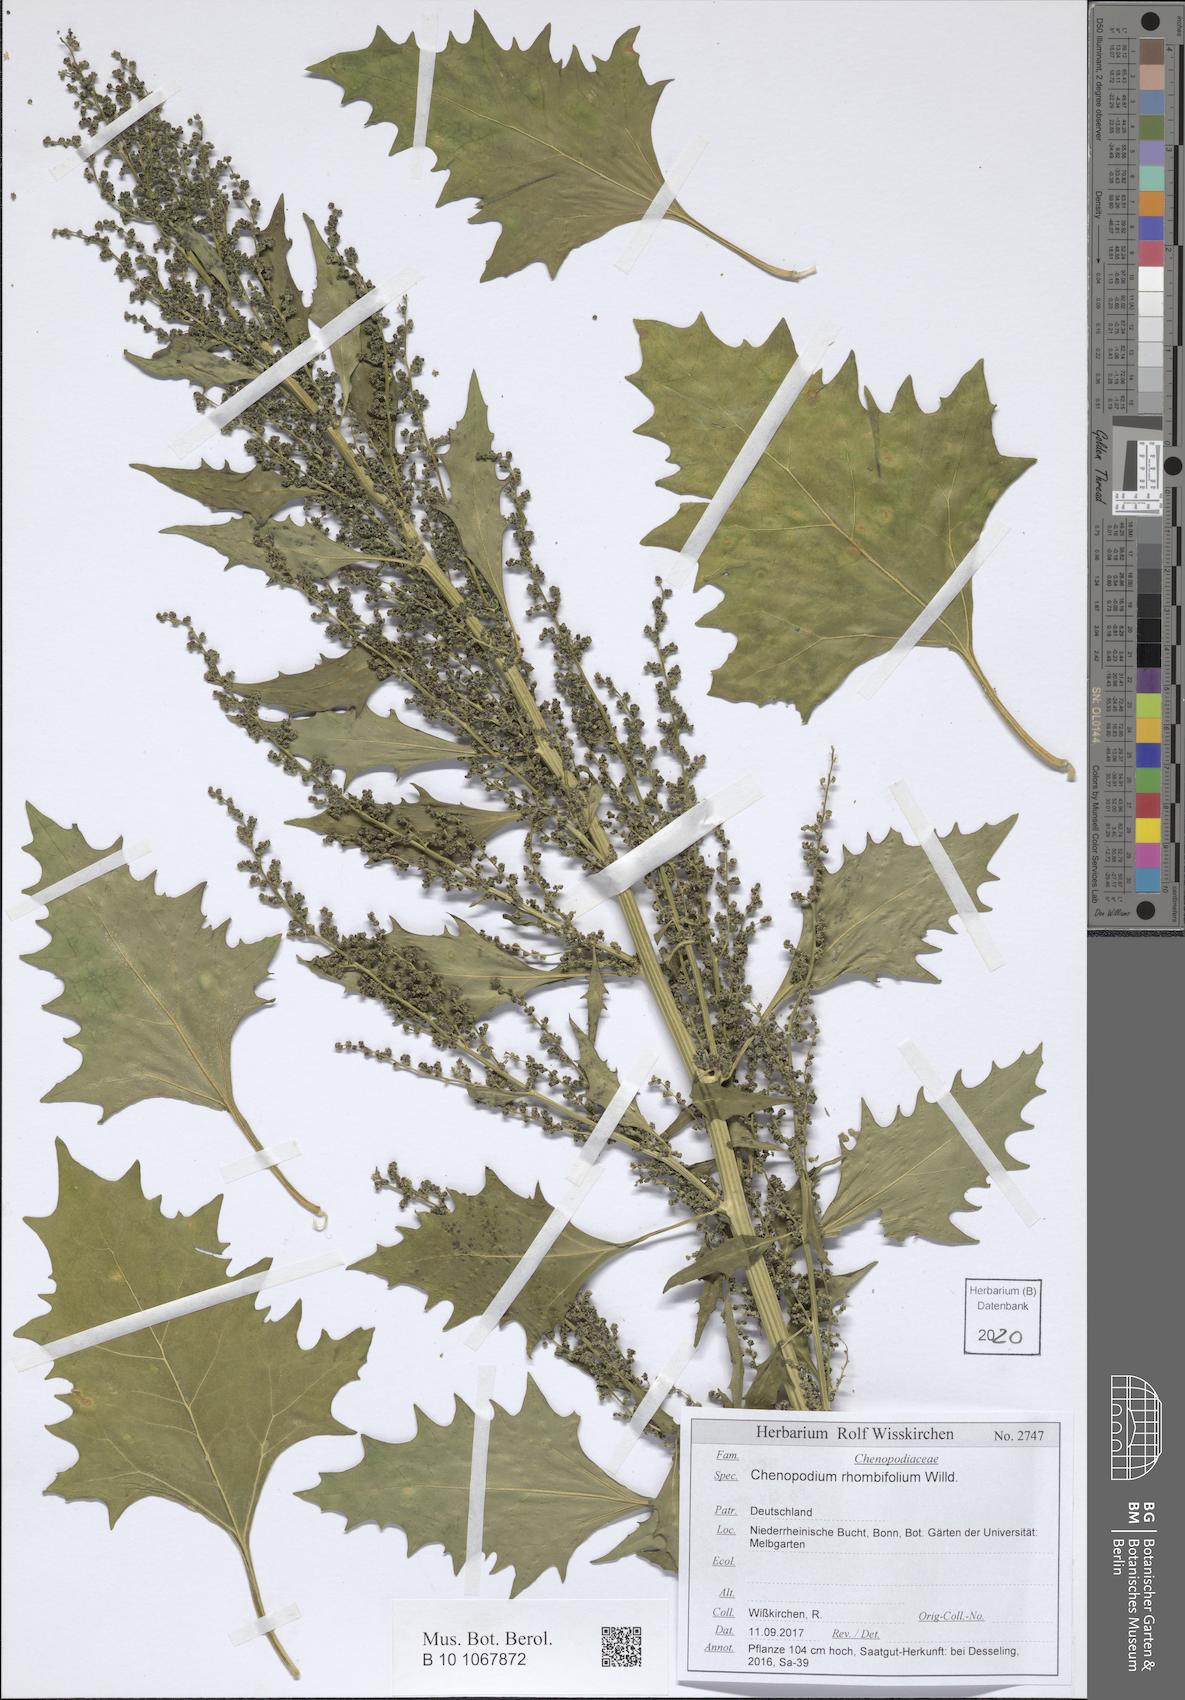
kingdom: Plantae
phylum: Tracheophyta
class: Magnoliopsida
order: Caryophyllales
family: Amaranthaceae
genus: Oxybasis
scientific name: Oxybasis rhombifolia
